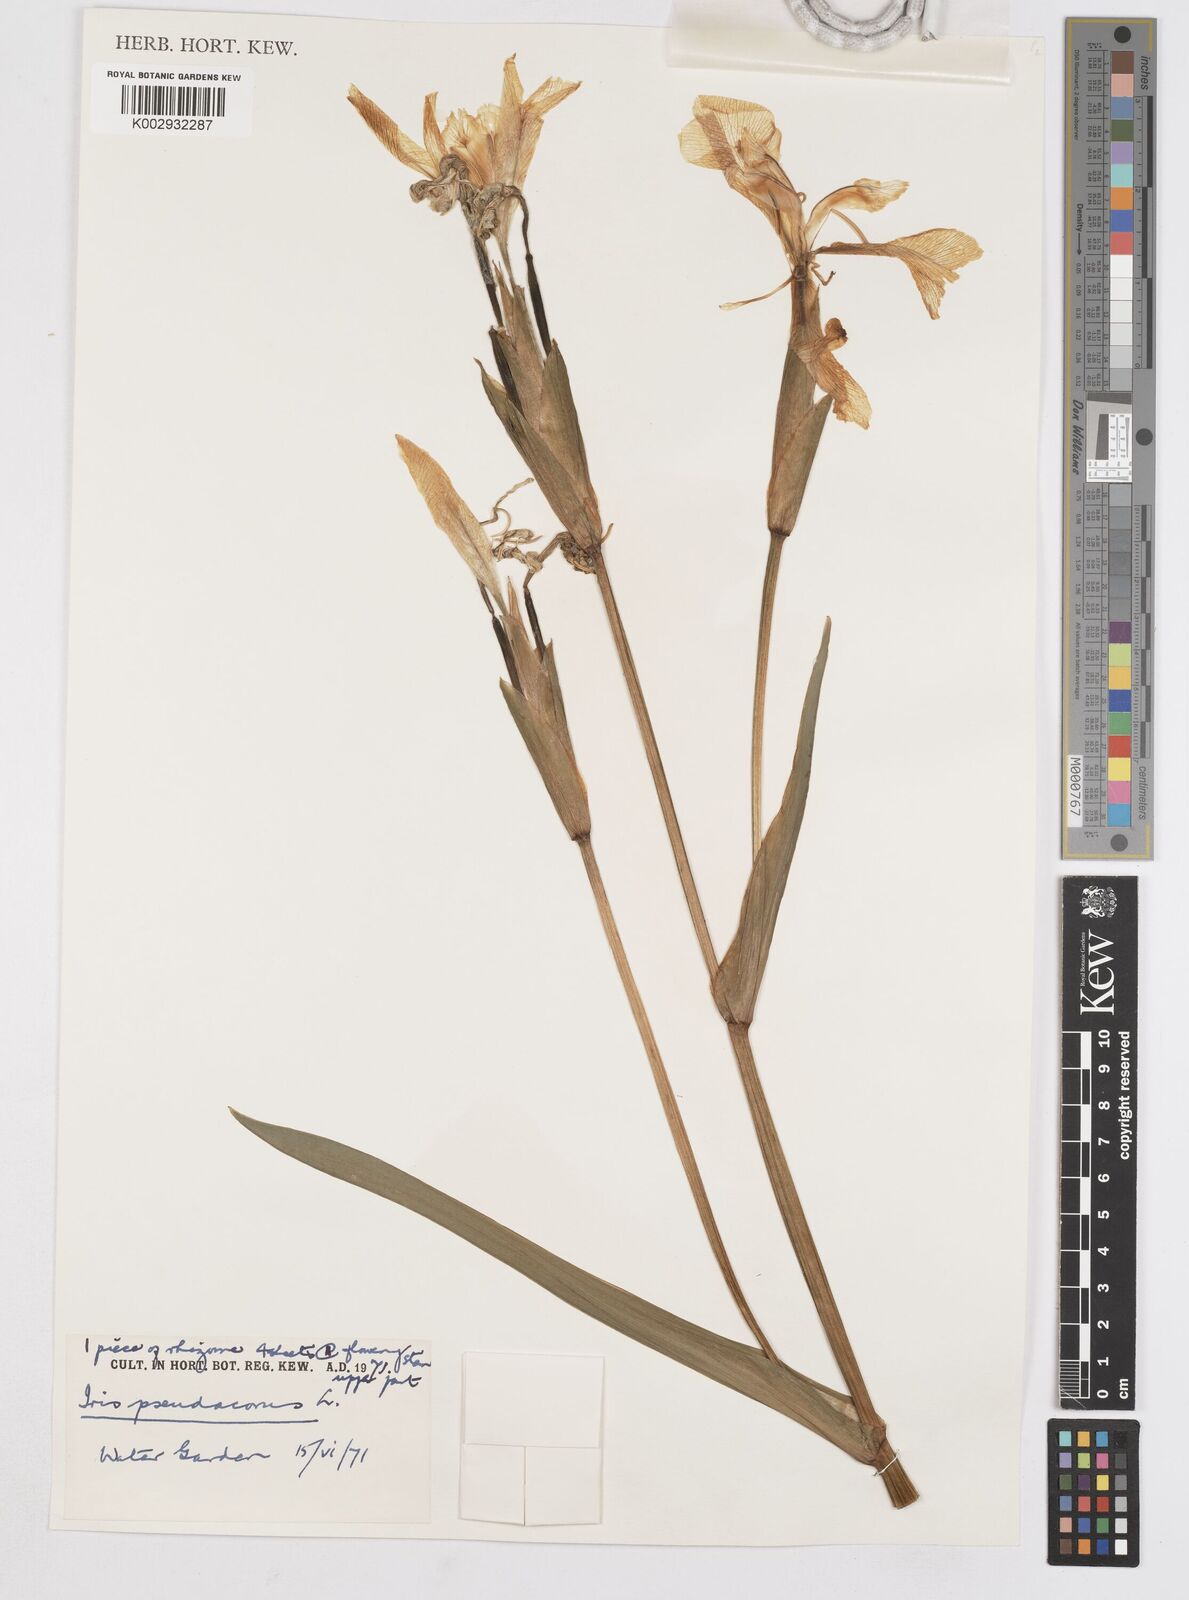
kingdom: Plantae
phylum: Tracheophyta
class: Liliopsida
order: Asparagales
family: Iridaceae
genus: Iris
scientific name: Iris pseudacorus
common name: Yellow flag
